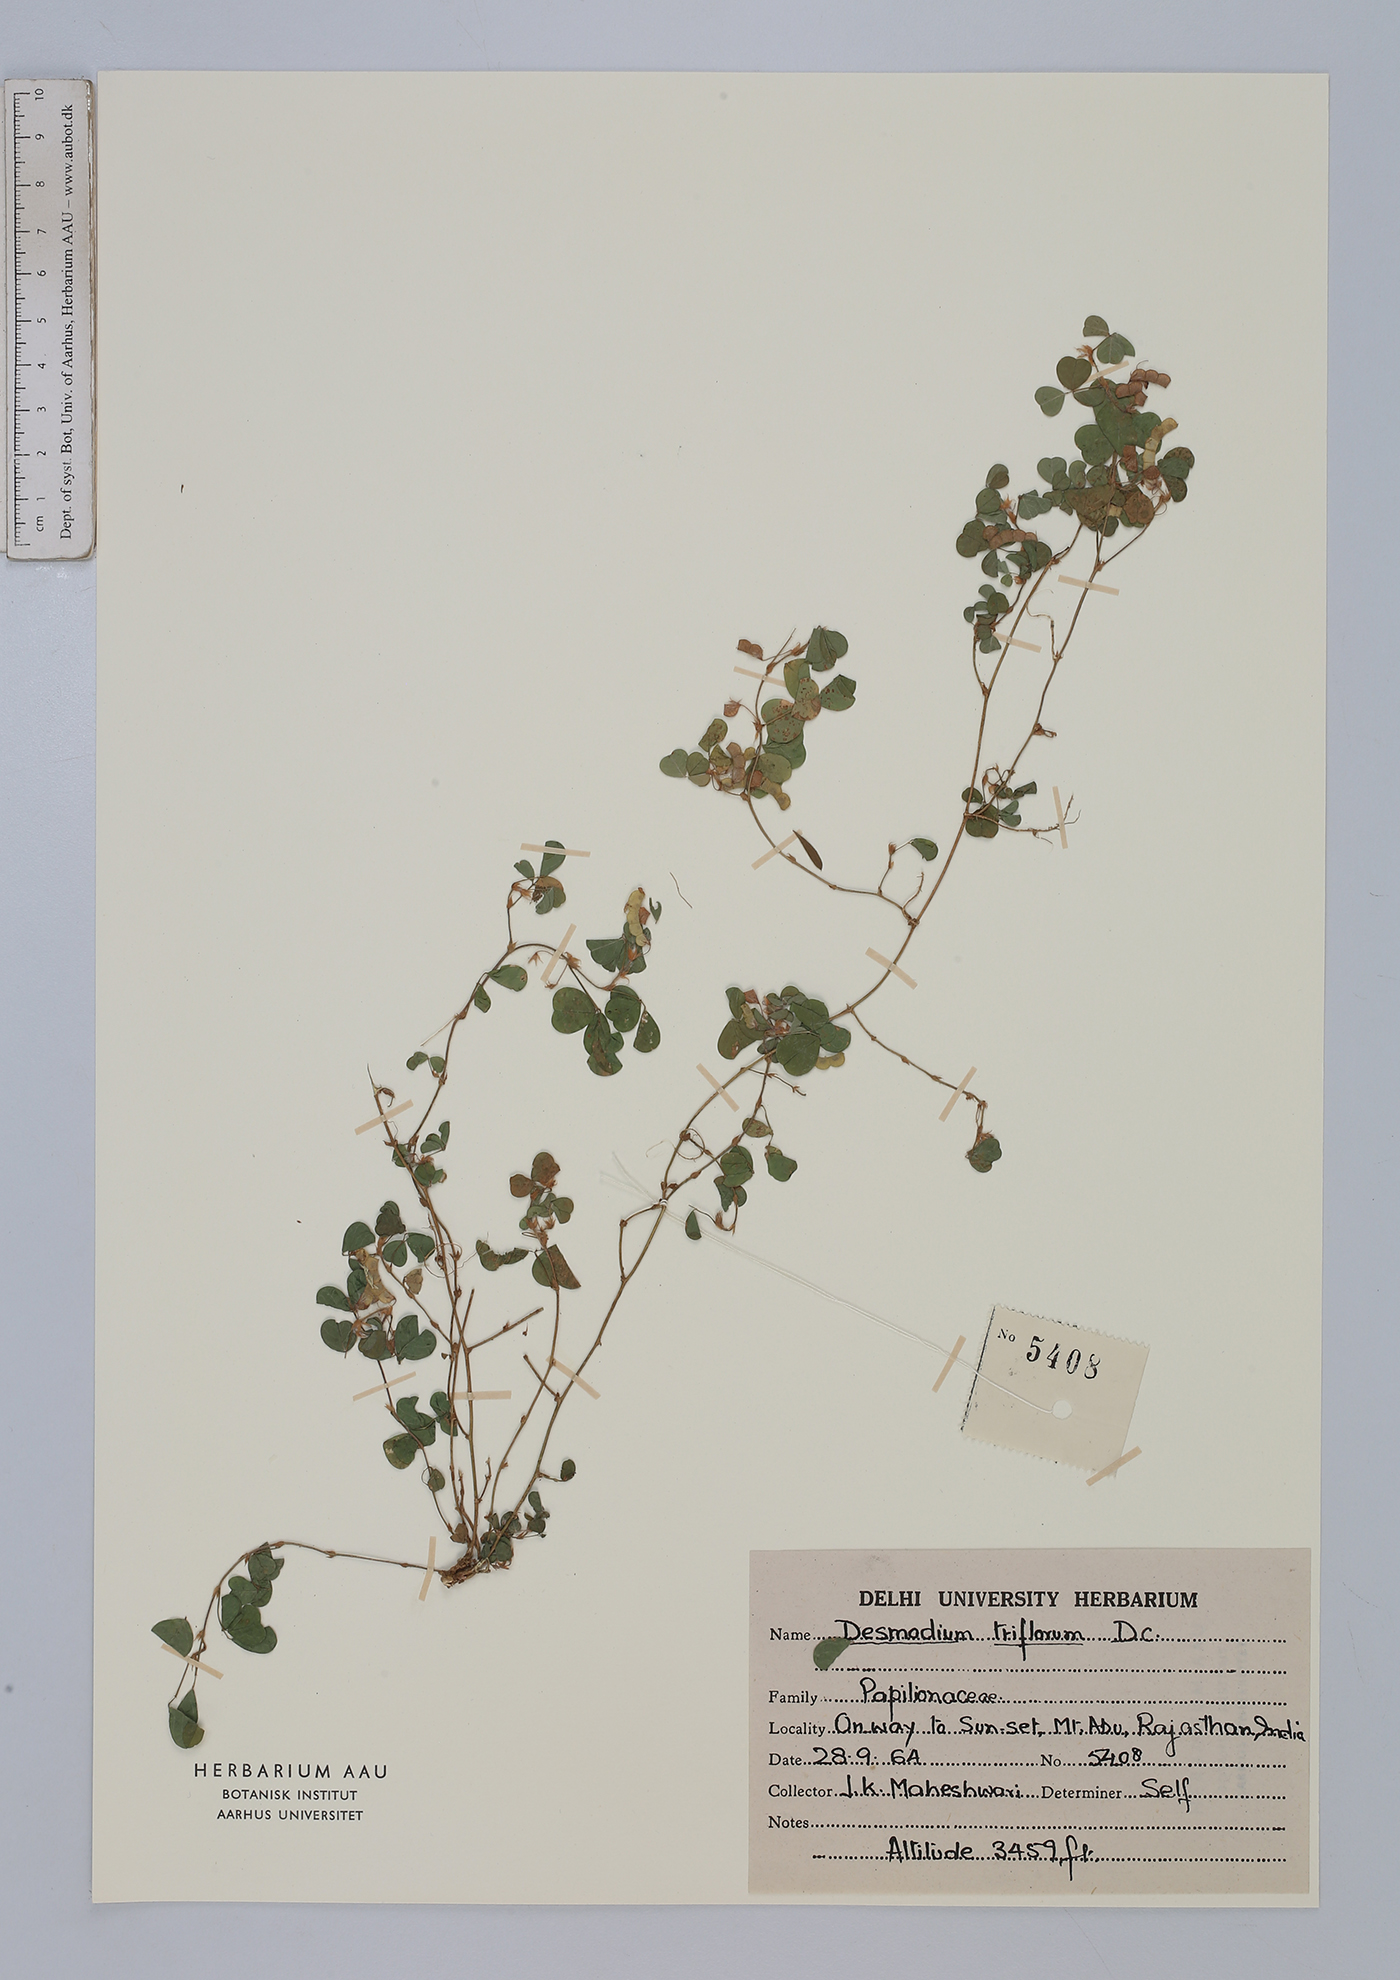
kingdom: Plantae
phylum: Tracheophyta
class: Magnoliopsida
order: Fabales
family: Fabaceae
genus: Grona
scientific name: Grona triflora
